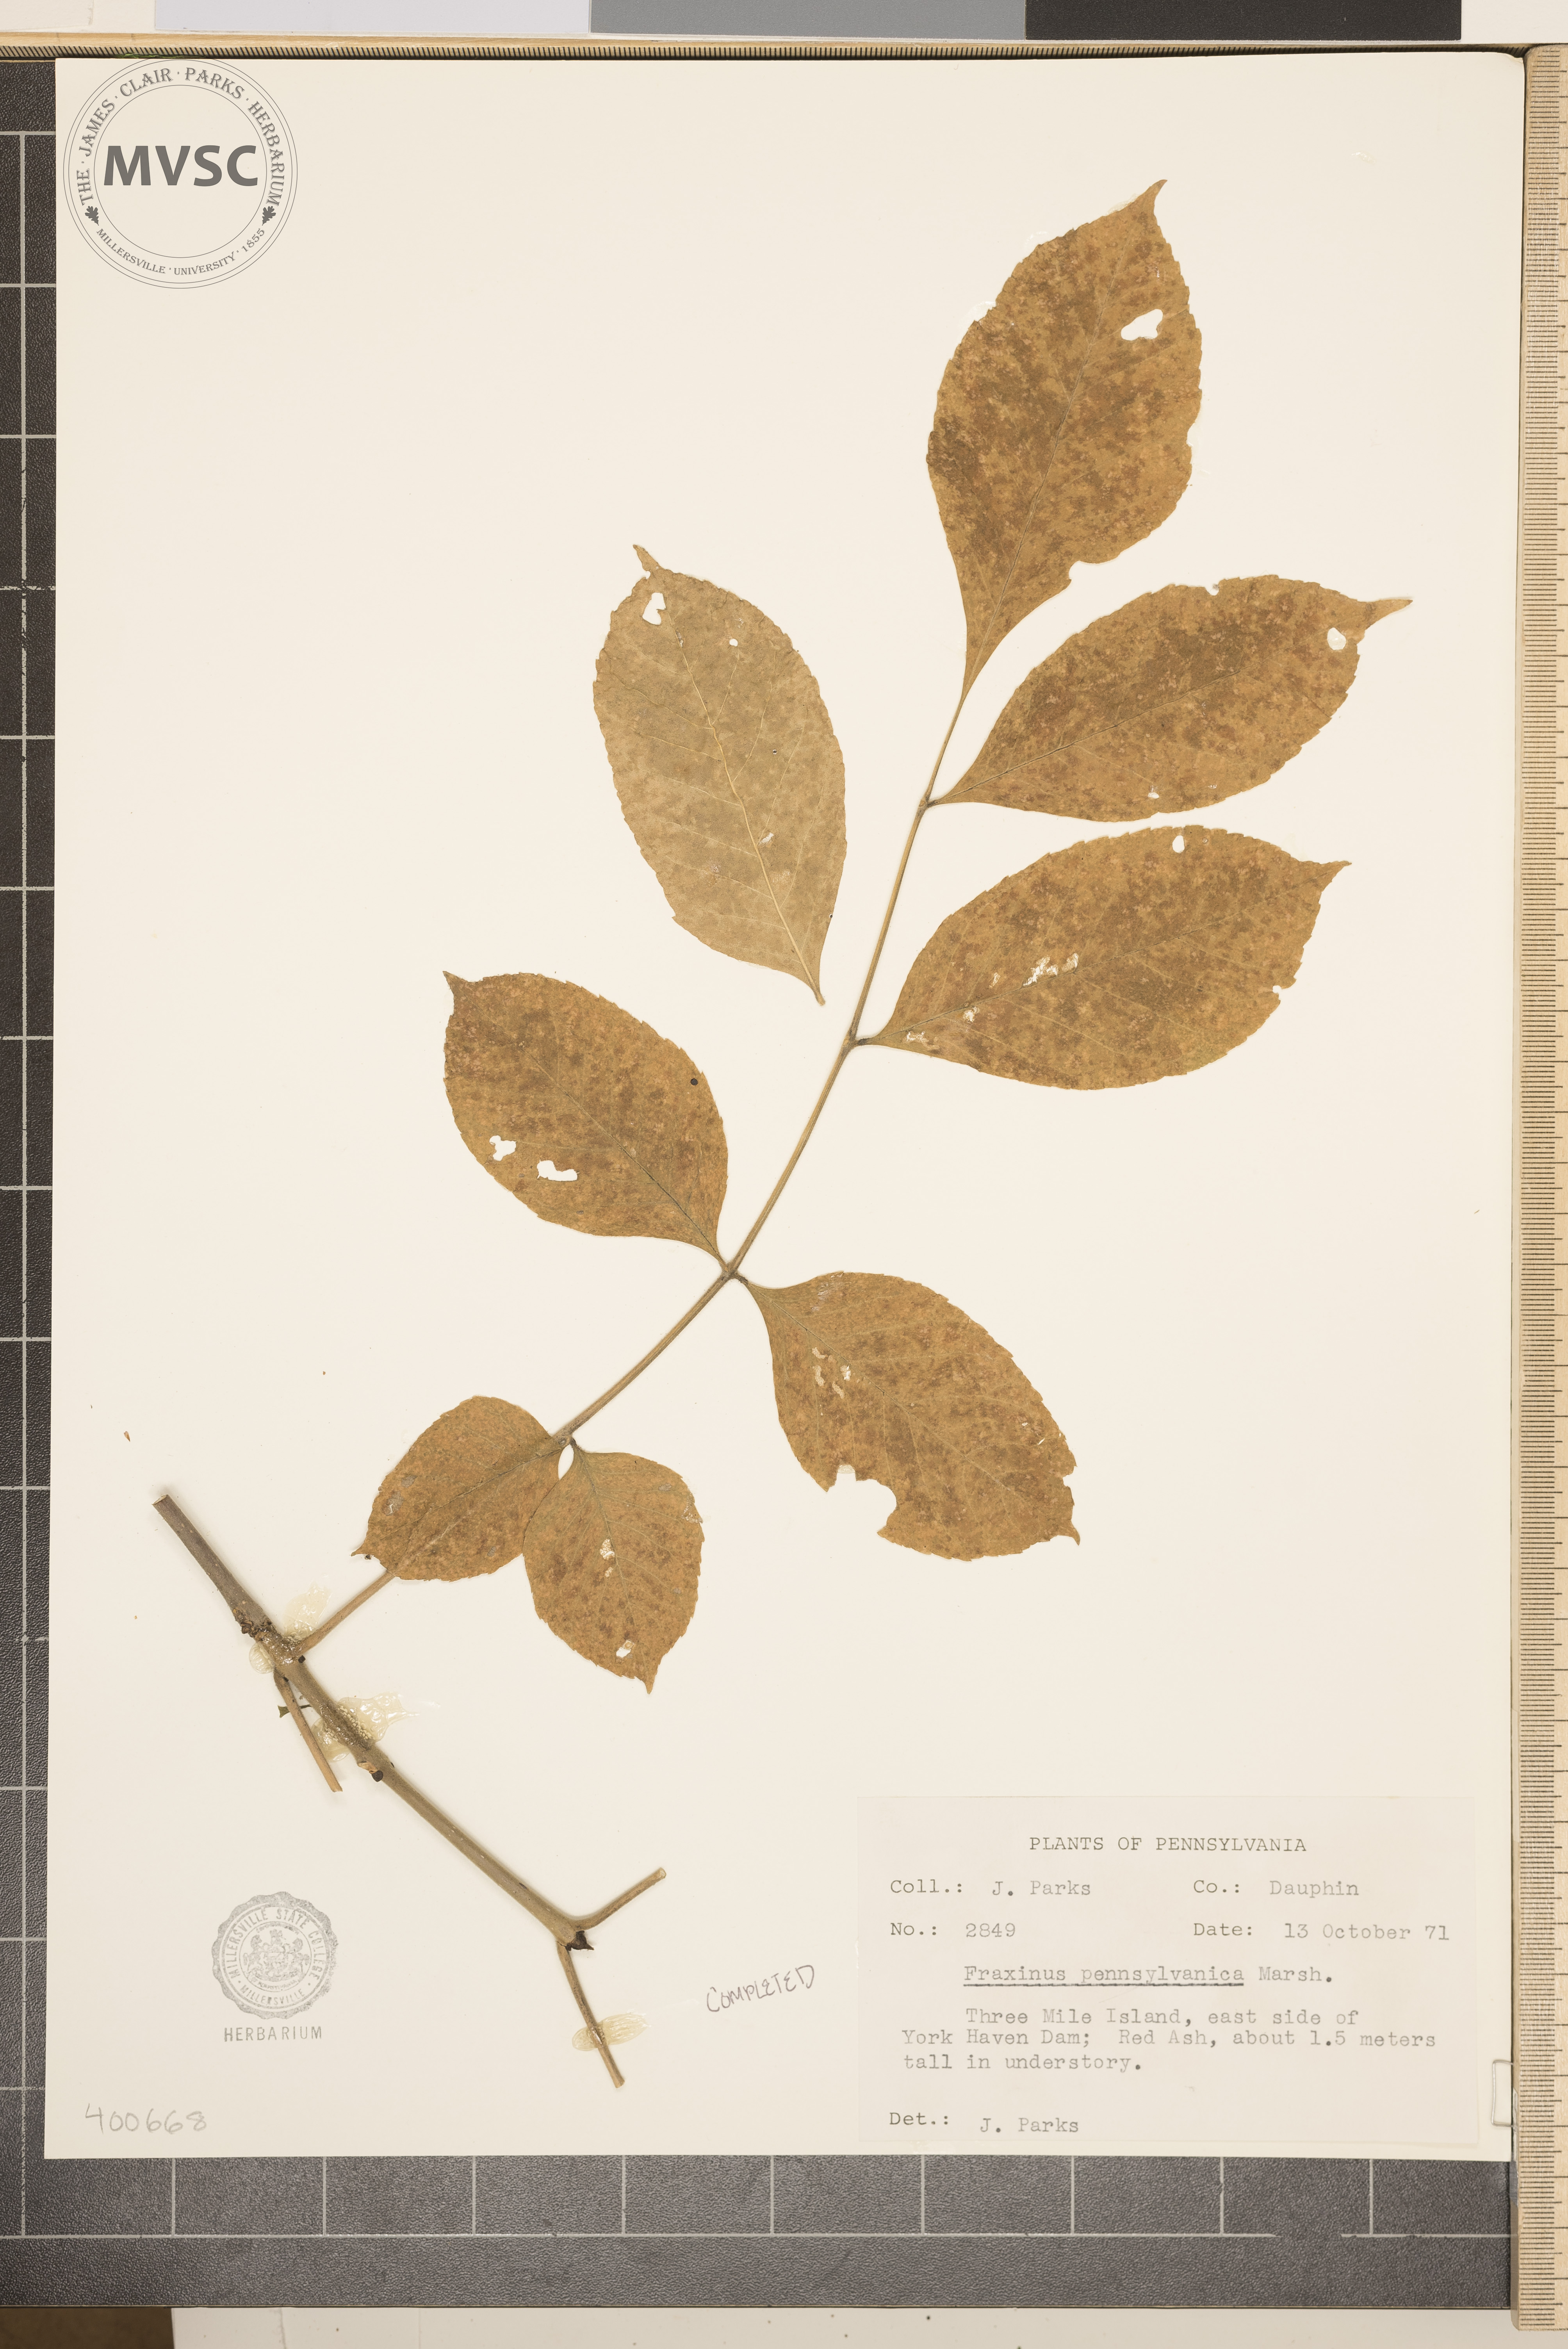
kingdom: Plantae
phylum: Tracheophyta
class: Magnoliopsida
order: Lamiales
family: Oleaceae
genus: Fraxinus
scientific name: Fraxinus pennsylvanica
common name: ash
